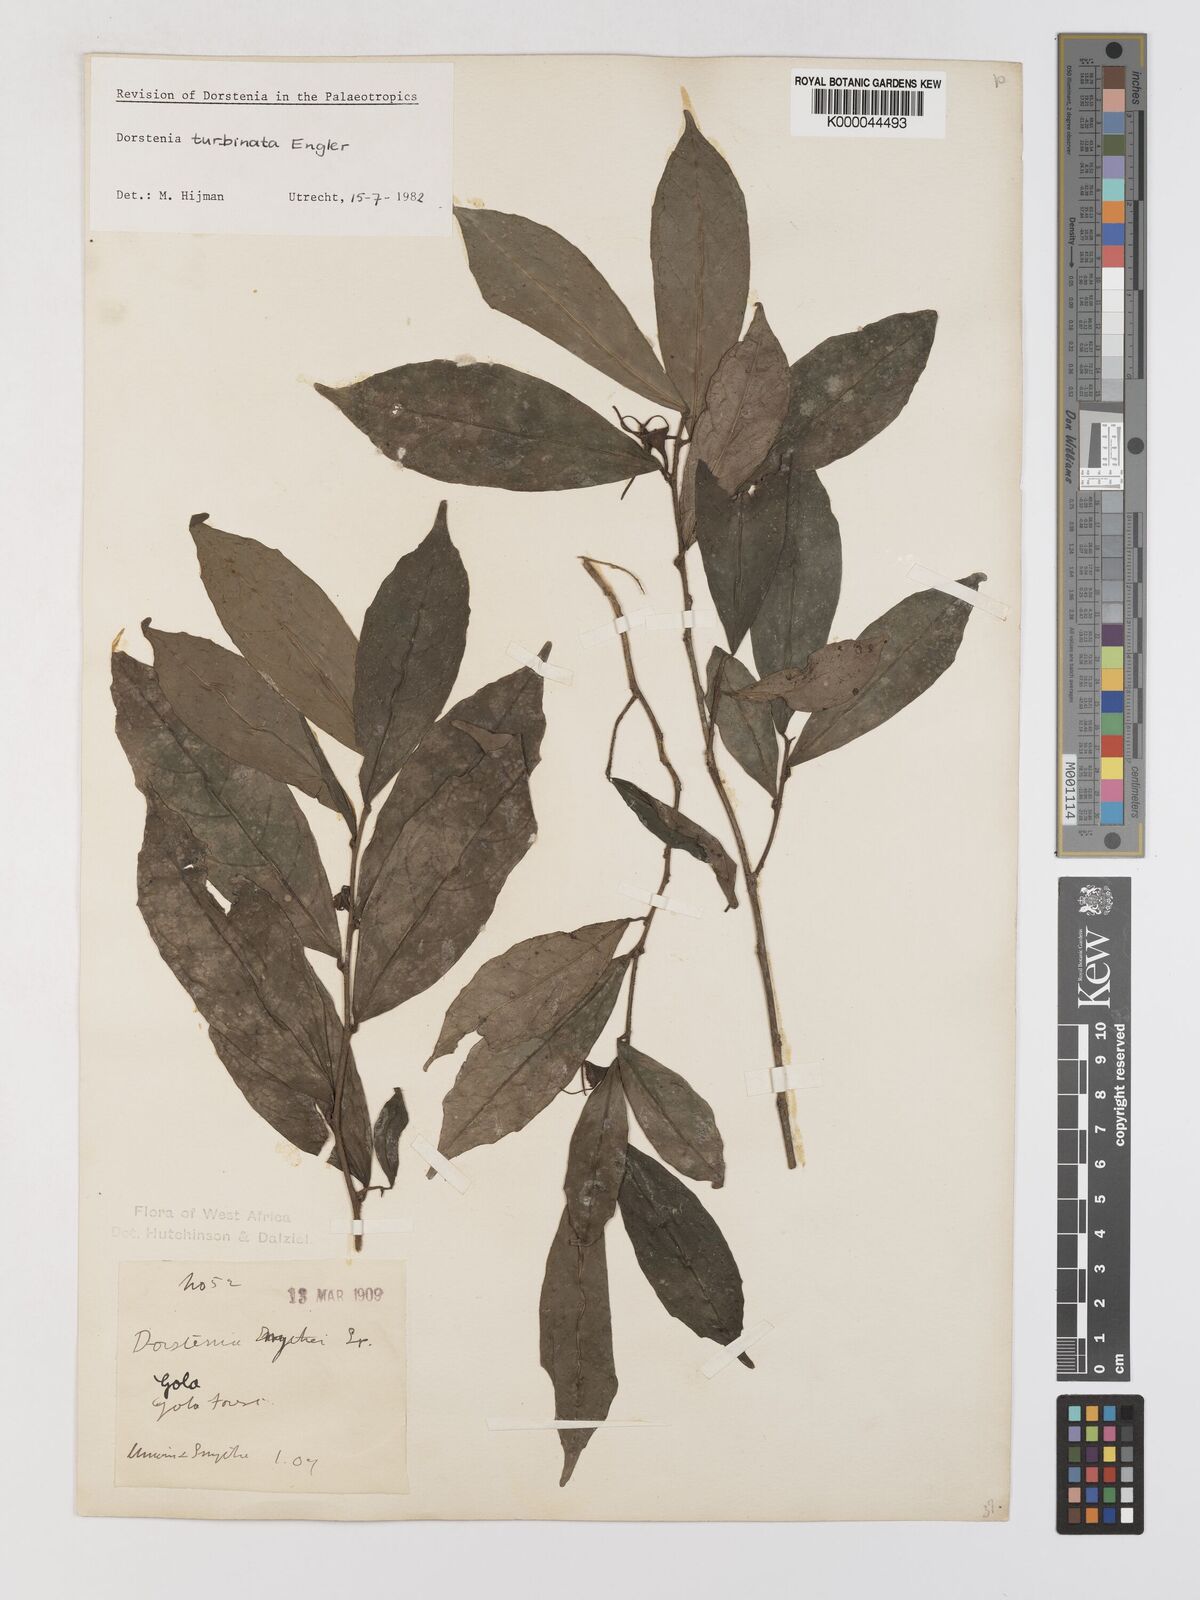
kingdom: Plantae
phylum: Tracheophyta
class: Magnoliopsida
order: Rosales
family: Moraceae
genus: Hijmania
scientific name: Hijmania turbinata
